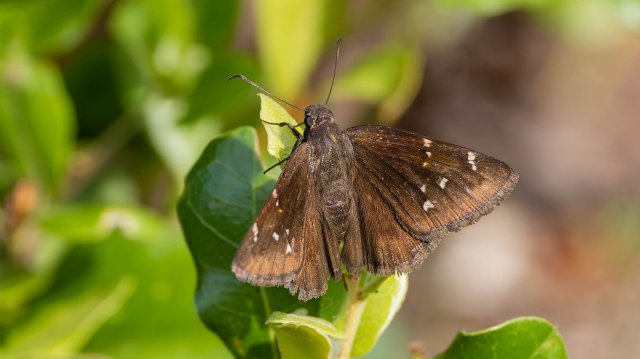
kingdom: Animalia
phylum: Arthropoda
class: Insecta
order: Lepidoptera
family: Hesperiidae
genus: Autochton
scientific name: Autochton
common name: Northern Cloudywing
